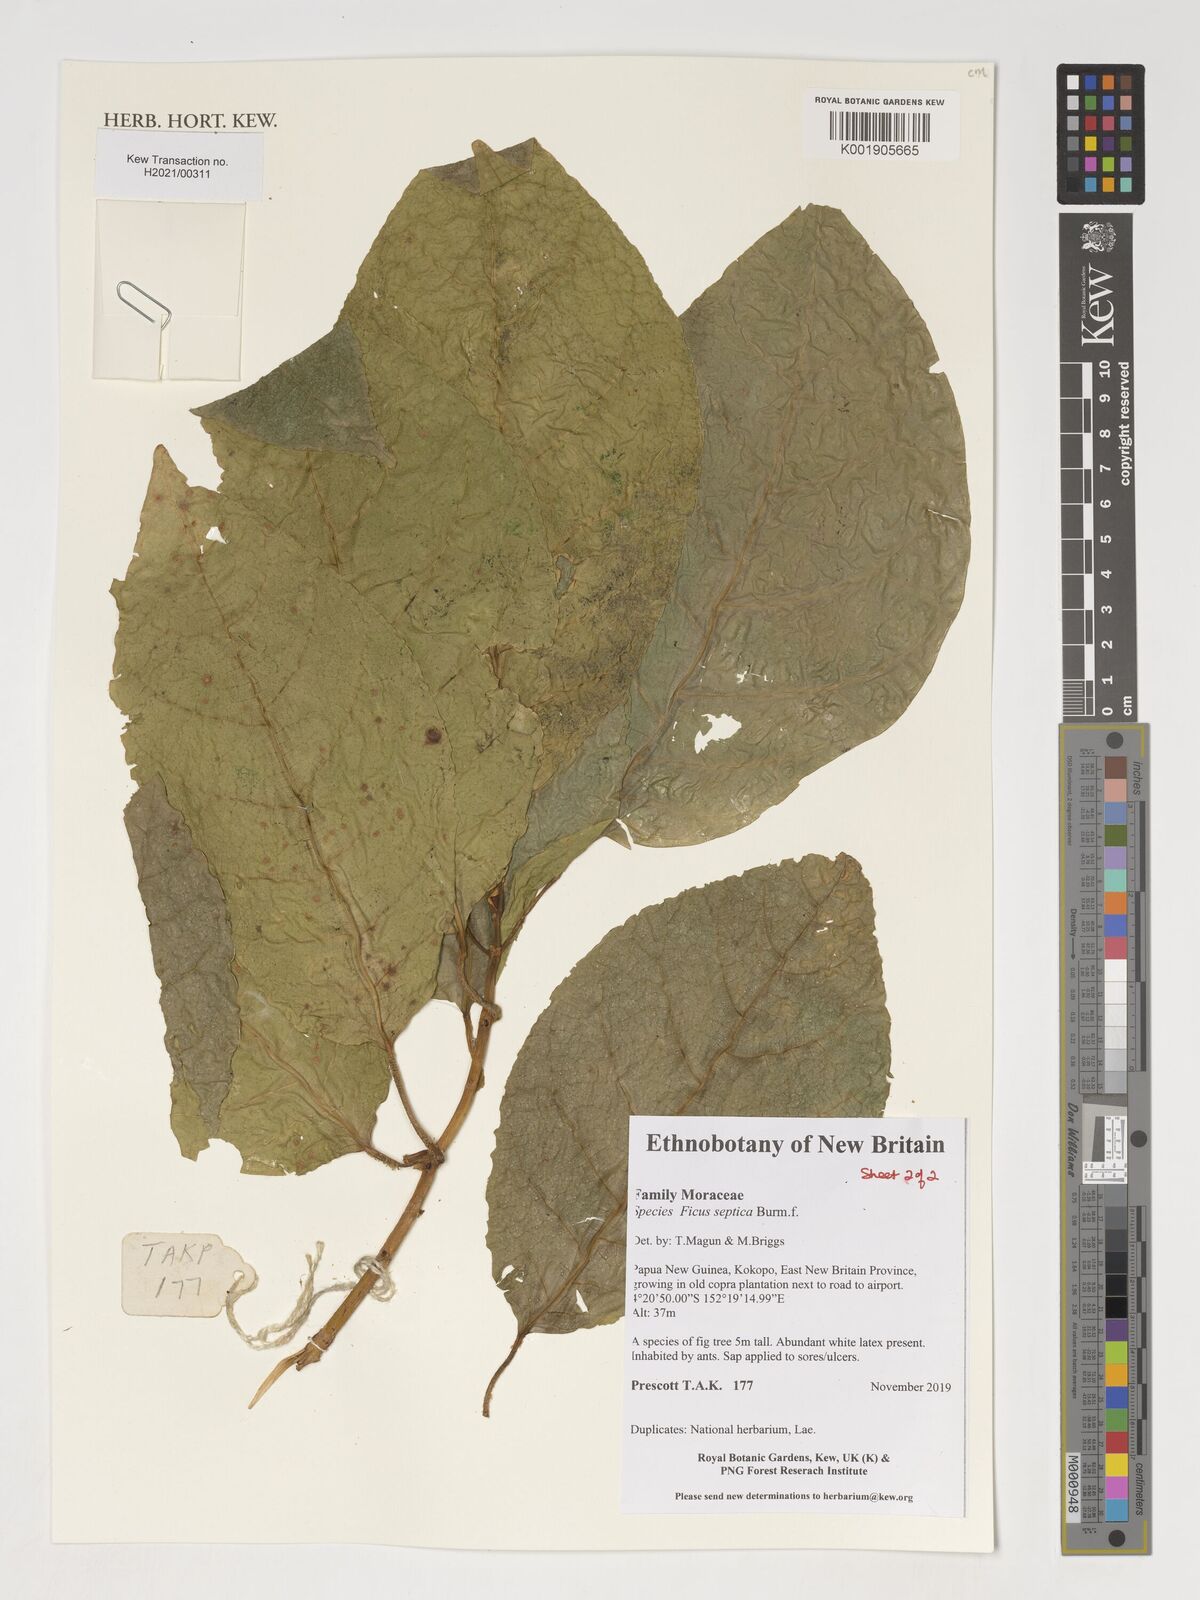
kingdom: Plantae
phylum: Tracheophyta
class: Magnoliopsida
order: Rosales
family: Moraceae
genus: Ficus
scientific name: Ficus septica
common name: Septic fig
